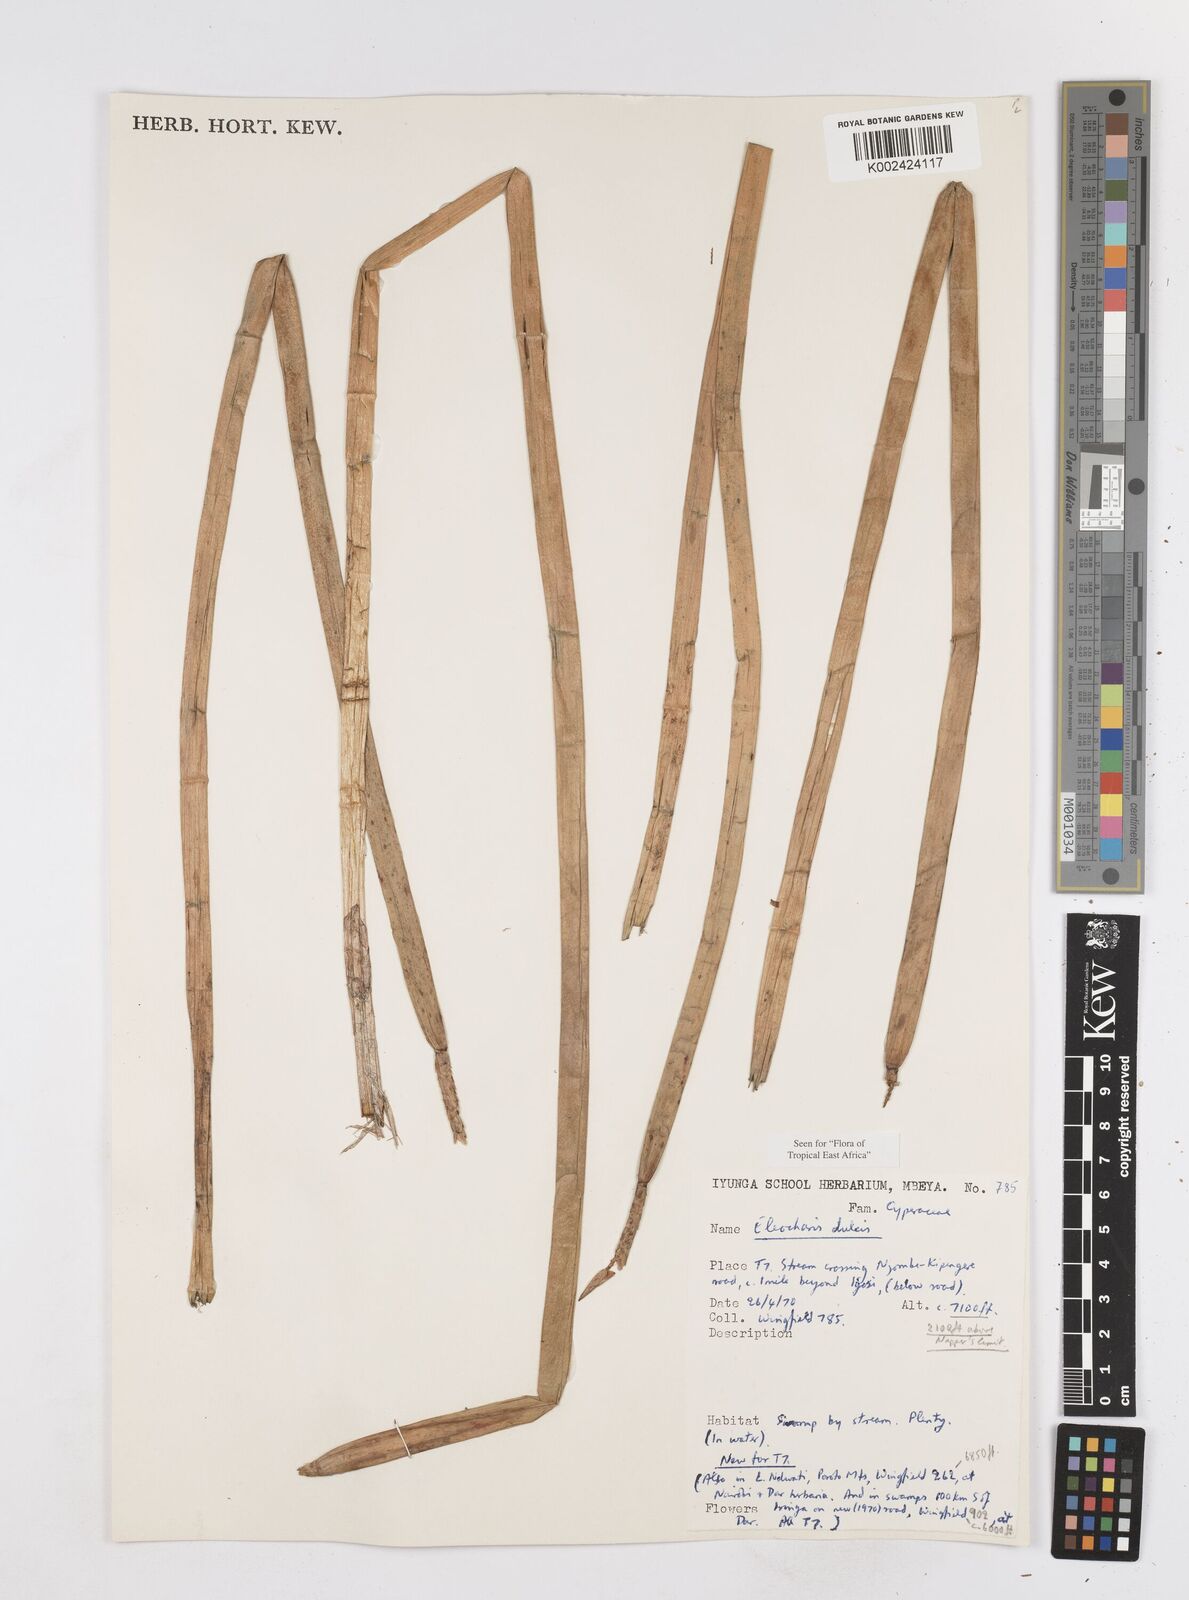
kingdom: Plantae
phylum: Tracheophyta
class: Liliopsida
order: Poales
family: Cyperaceae
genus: Eleocharis
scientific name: Eleocharis dulcis
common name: Chinese water chestnut
